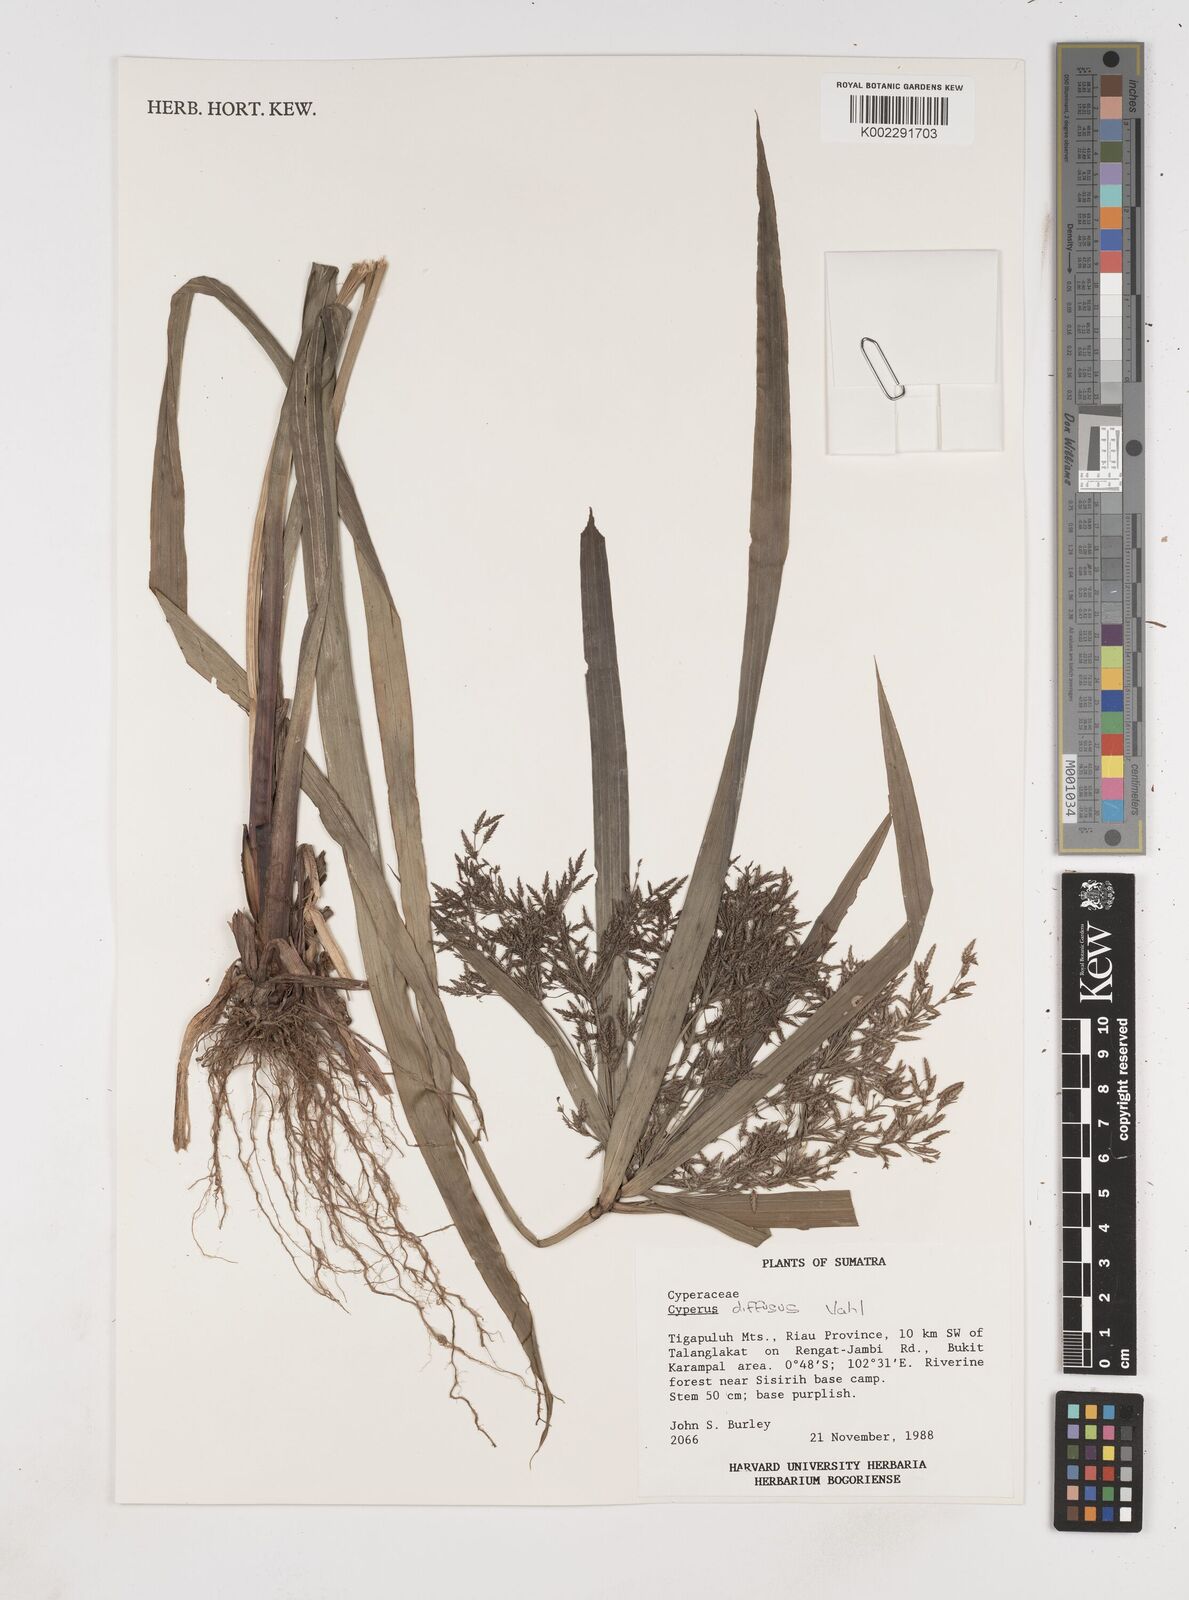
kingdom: Plantae
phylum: Tracheophyta
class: Liliopsida
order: Poales
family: Cyperaceae
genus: Cyperus
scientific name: Cyperus diffusus
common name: Dwarf umbrella grass
